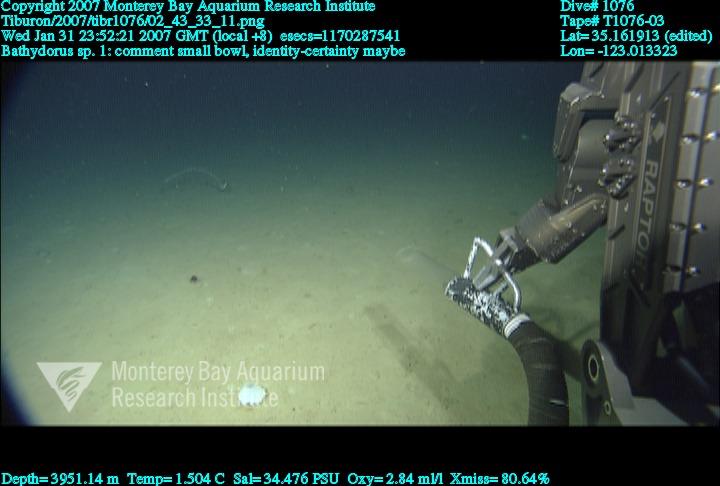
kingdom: Animalia
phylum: Porifera
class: Hexactinellida
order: Lyssacinosida
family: Rossellidae
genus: Bathydorus
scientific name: Bathydorus
